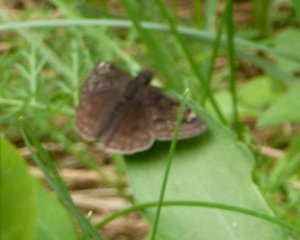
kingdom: Animalia
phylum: Arthropoda
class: Insecta
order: Lepidoptera
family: Hesperiidae
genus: Gesta
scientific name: Gesta
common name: Juvenal's Duskywing
